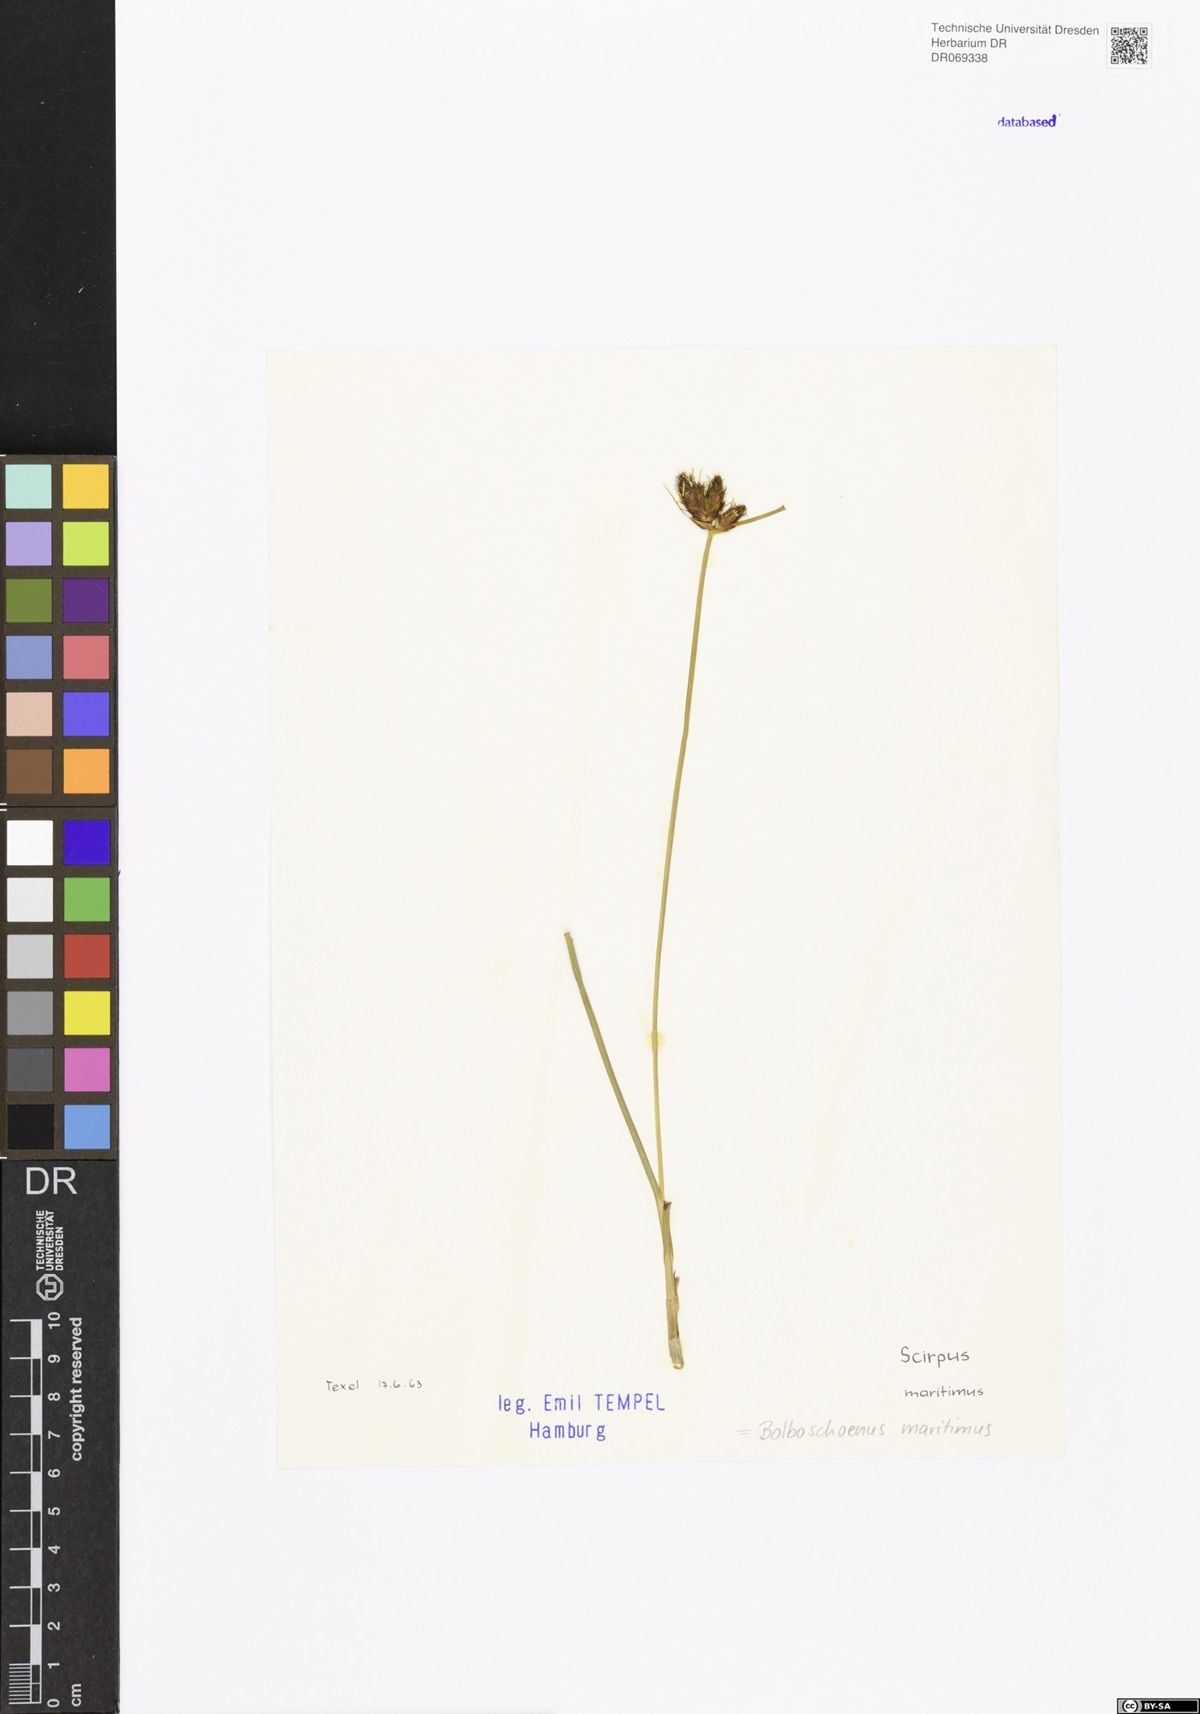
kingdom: Plantae
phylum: Tracheophyta
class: Liliopsida
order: Poales
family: Cyperaceae
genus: Bolboschoenus
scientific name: Bolboschoenus maritimus
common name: Sea club-rush
